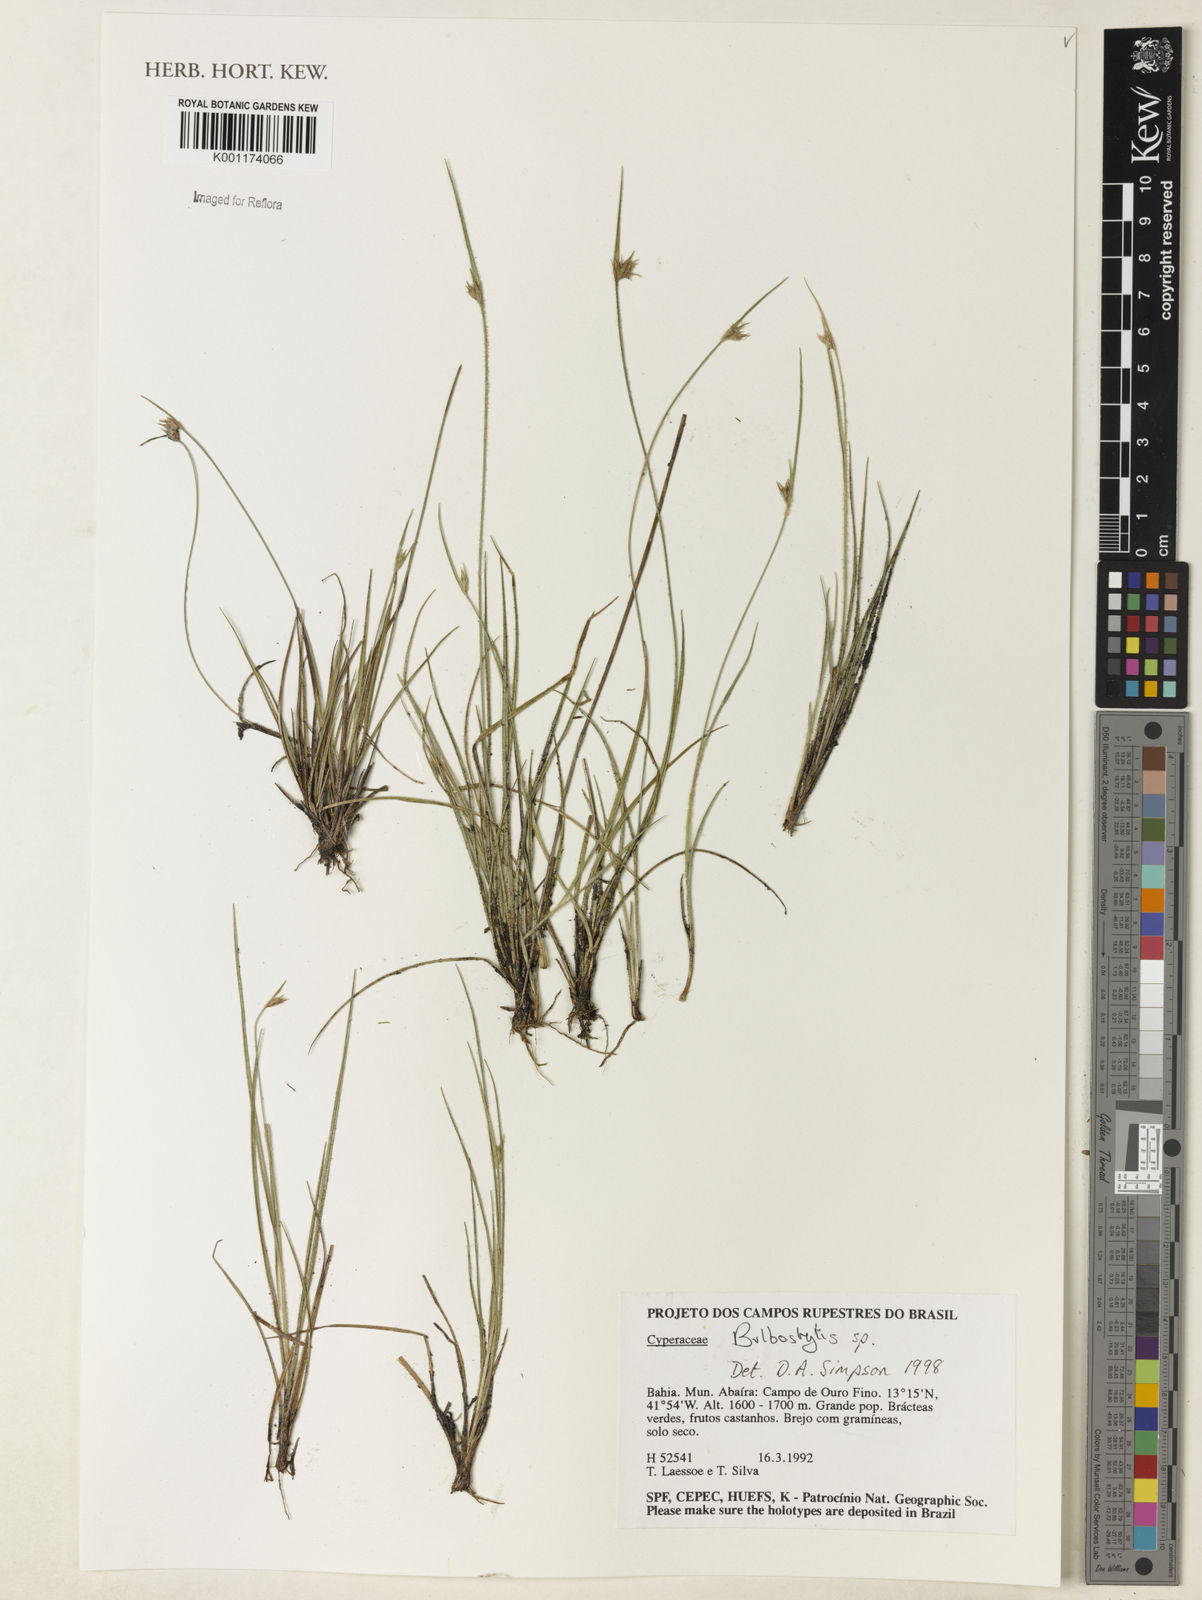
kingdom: Plantae
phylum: Tracheophyta
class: Liliopsida
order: Poales
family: Cyperaceae
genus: Bulbostylis
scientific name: Bulbostylis
